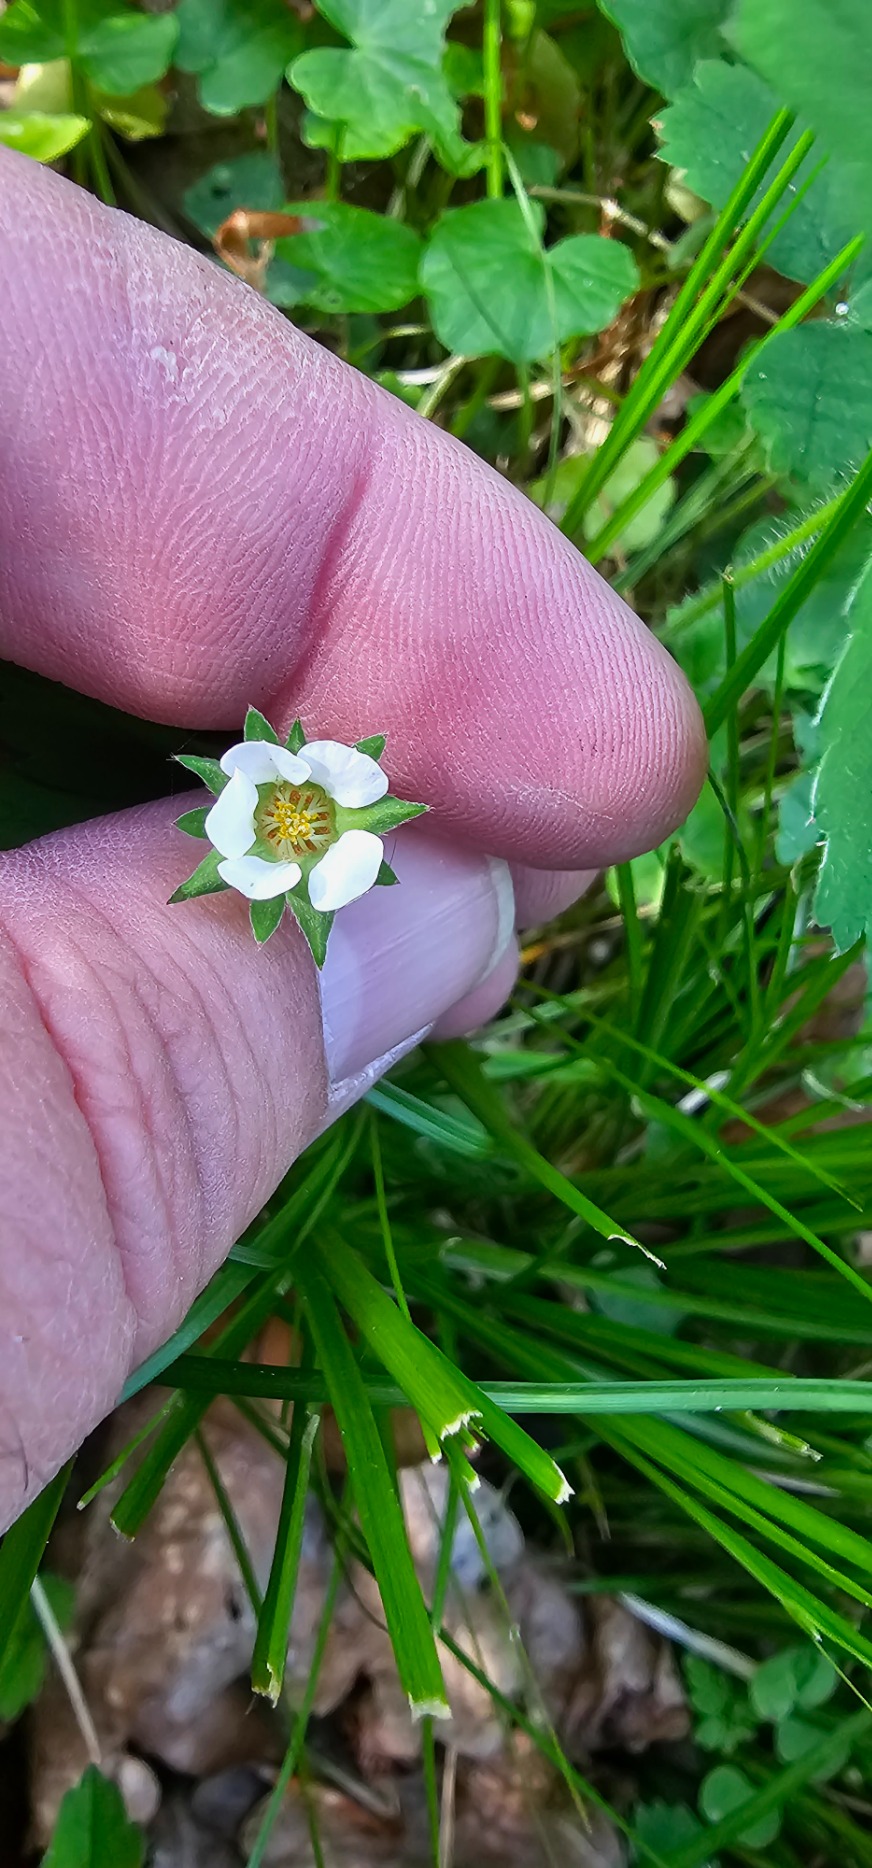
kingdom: Plantae
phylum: Tracheophyta
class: Magnoliopsida
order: Rosales
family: Rosaceae
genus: Potentilla
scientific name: Potentilla sterilis
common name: Jordbær-potentil
